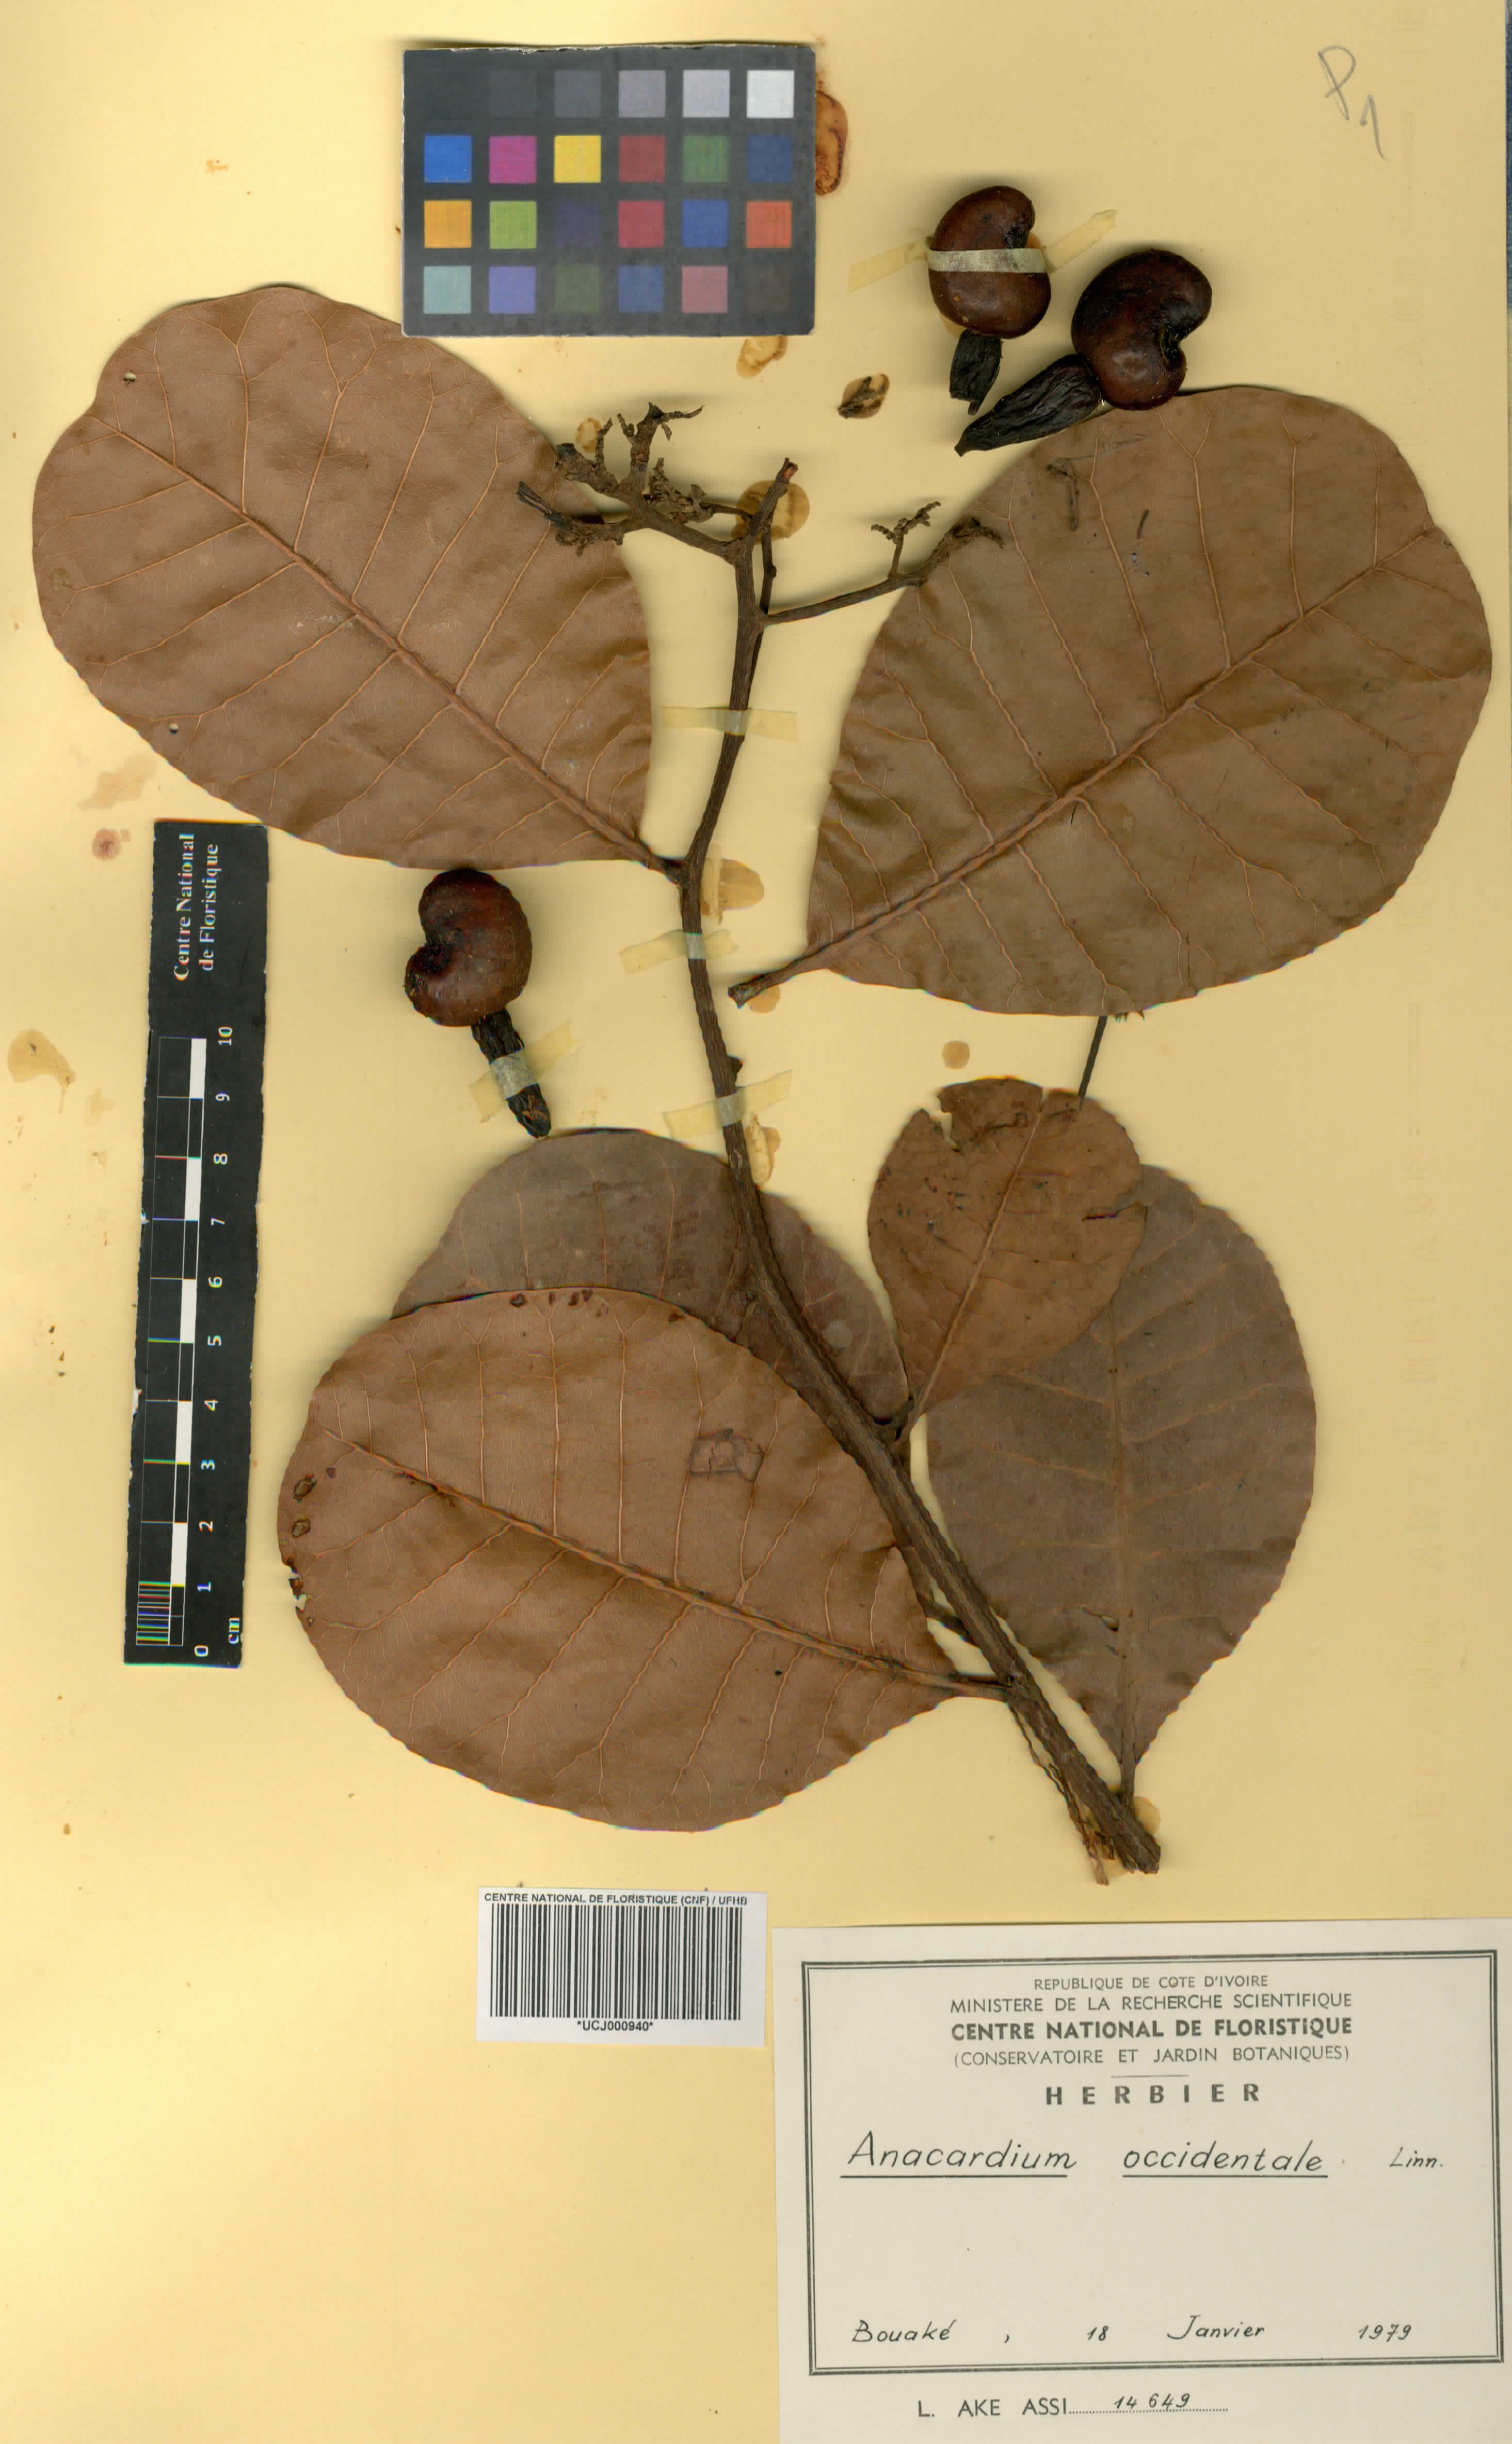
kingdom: Plantae
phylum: Tracheophyta
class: Magnoliopsida
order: Sapindales
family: Anacardiaceae
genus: Anacardium
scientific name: Anacardium occidentale
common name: Cashew
